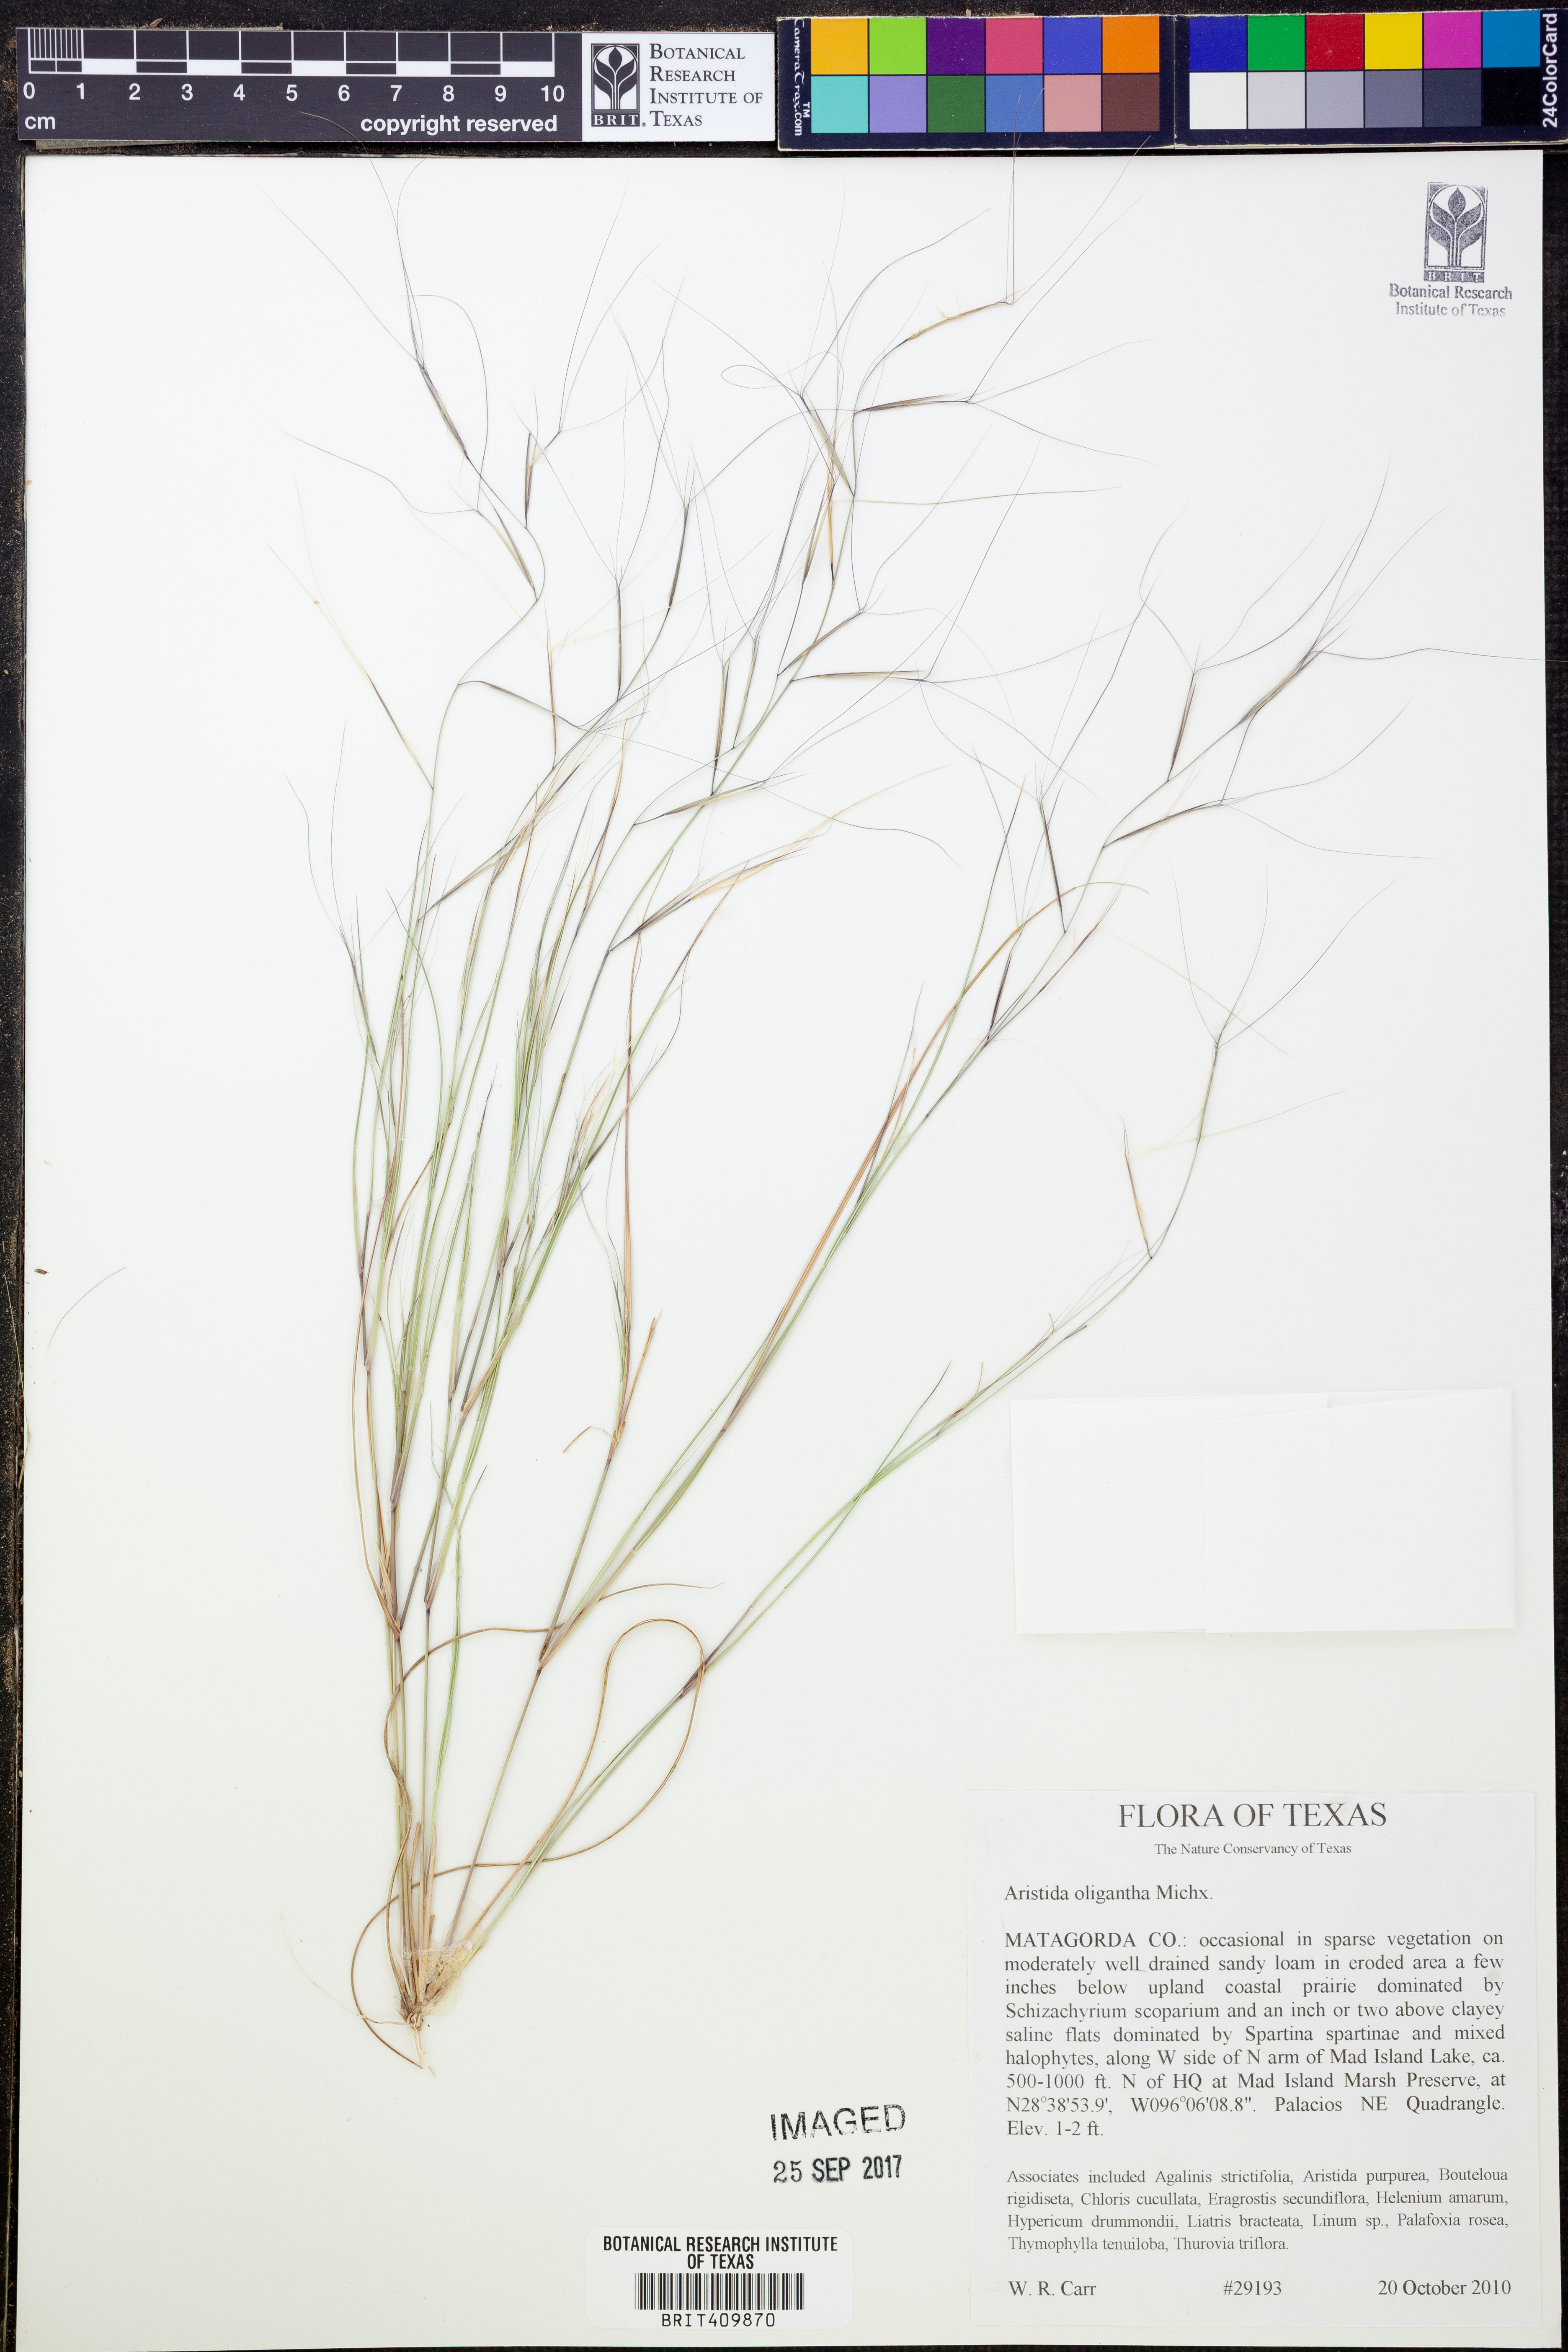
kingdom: Plantae
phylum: Tracheophyta
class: Liliopsida
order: Poales
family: Poaceae
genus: Aristida
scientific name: Aristida oligantha
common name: Few-flowered aristida
